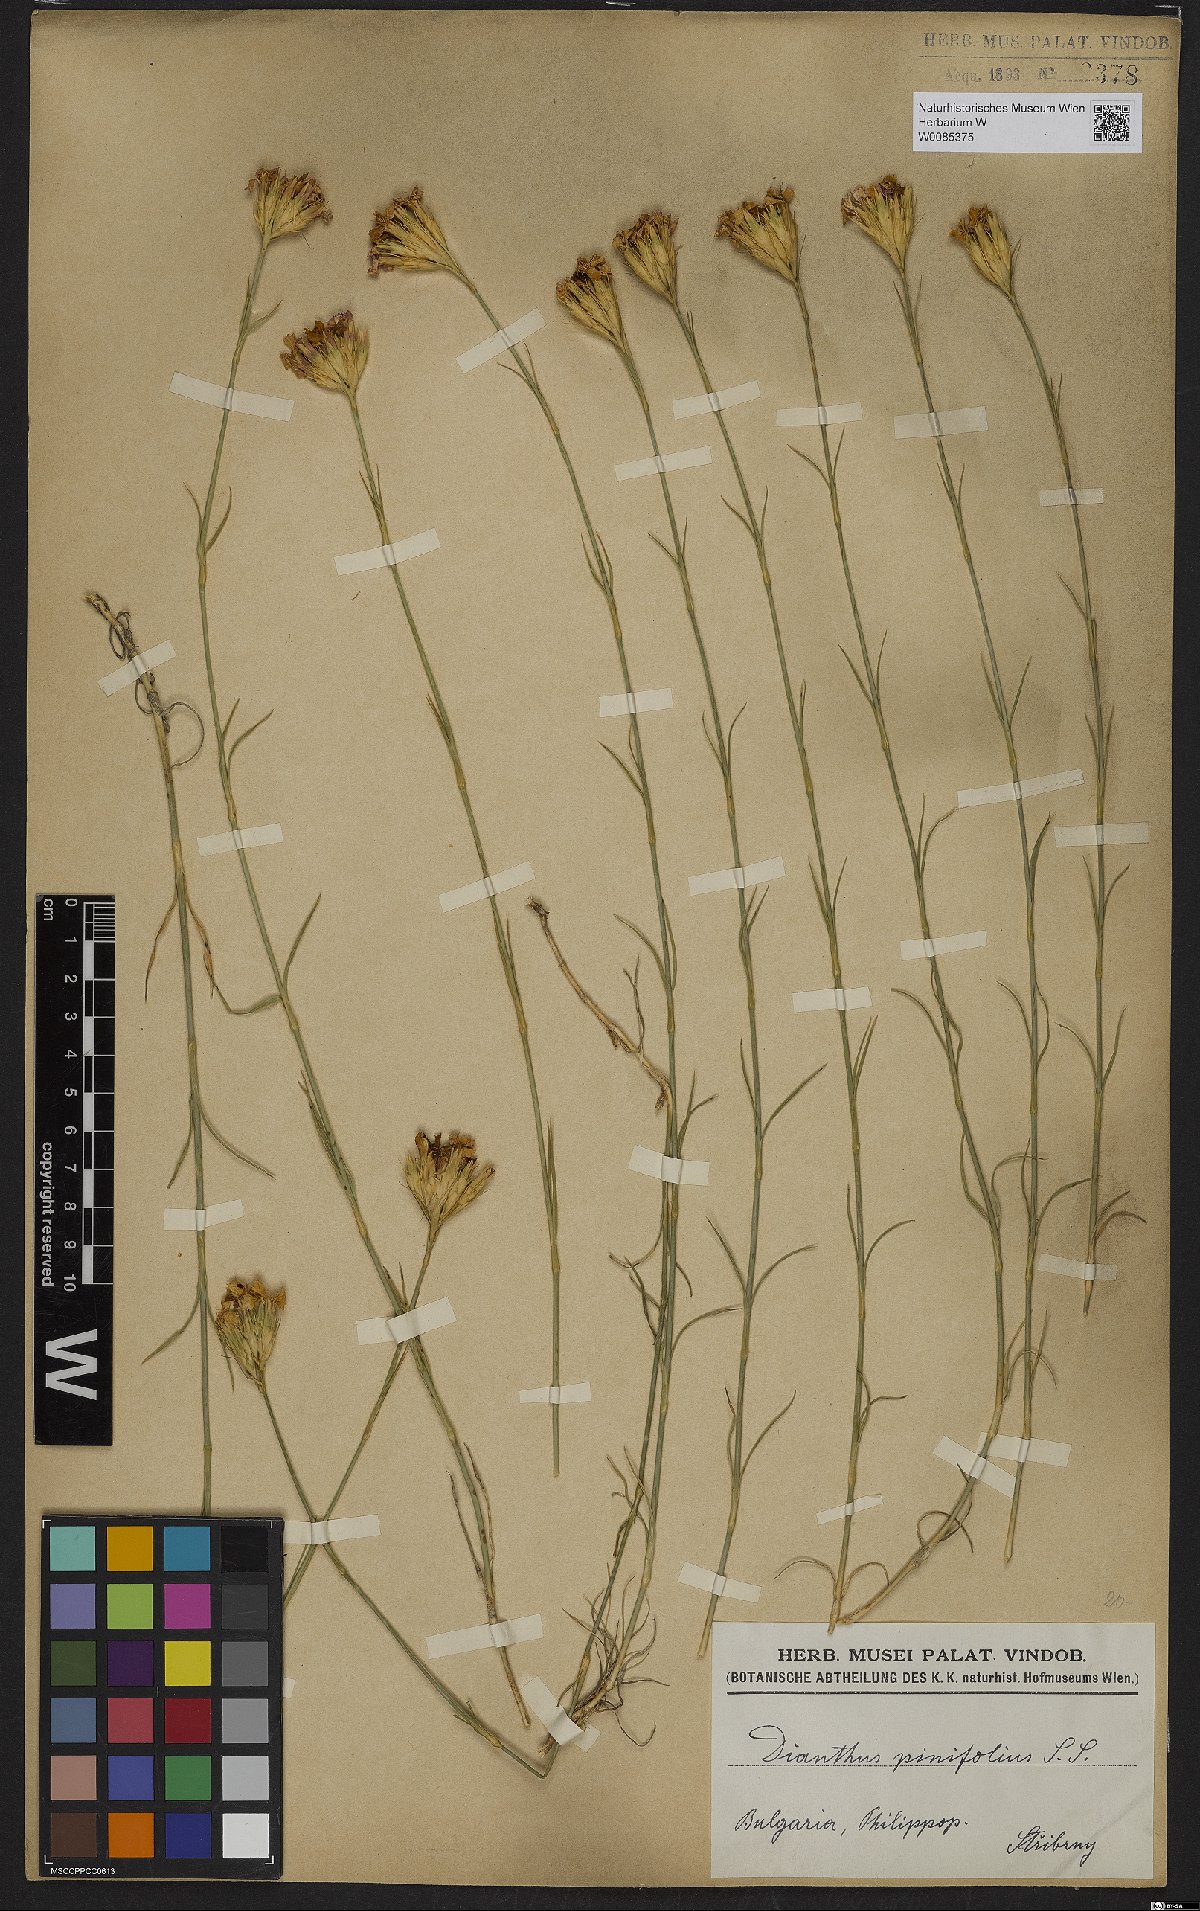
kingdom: Plantae
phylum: Tracheophyta
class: Magnoliopsida
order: Caryophyllales
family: Caryophyllaceae
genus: Dianthus
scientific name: Dianthus pinifolius
